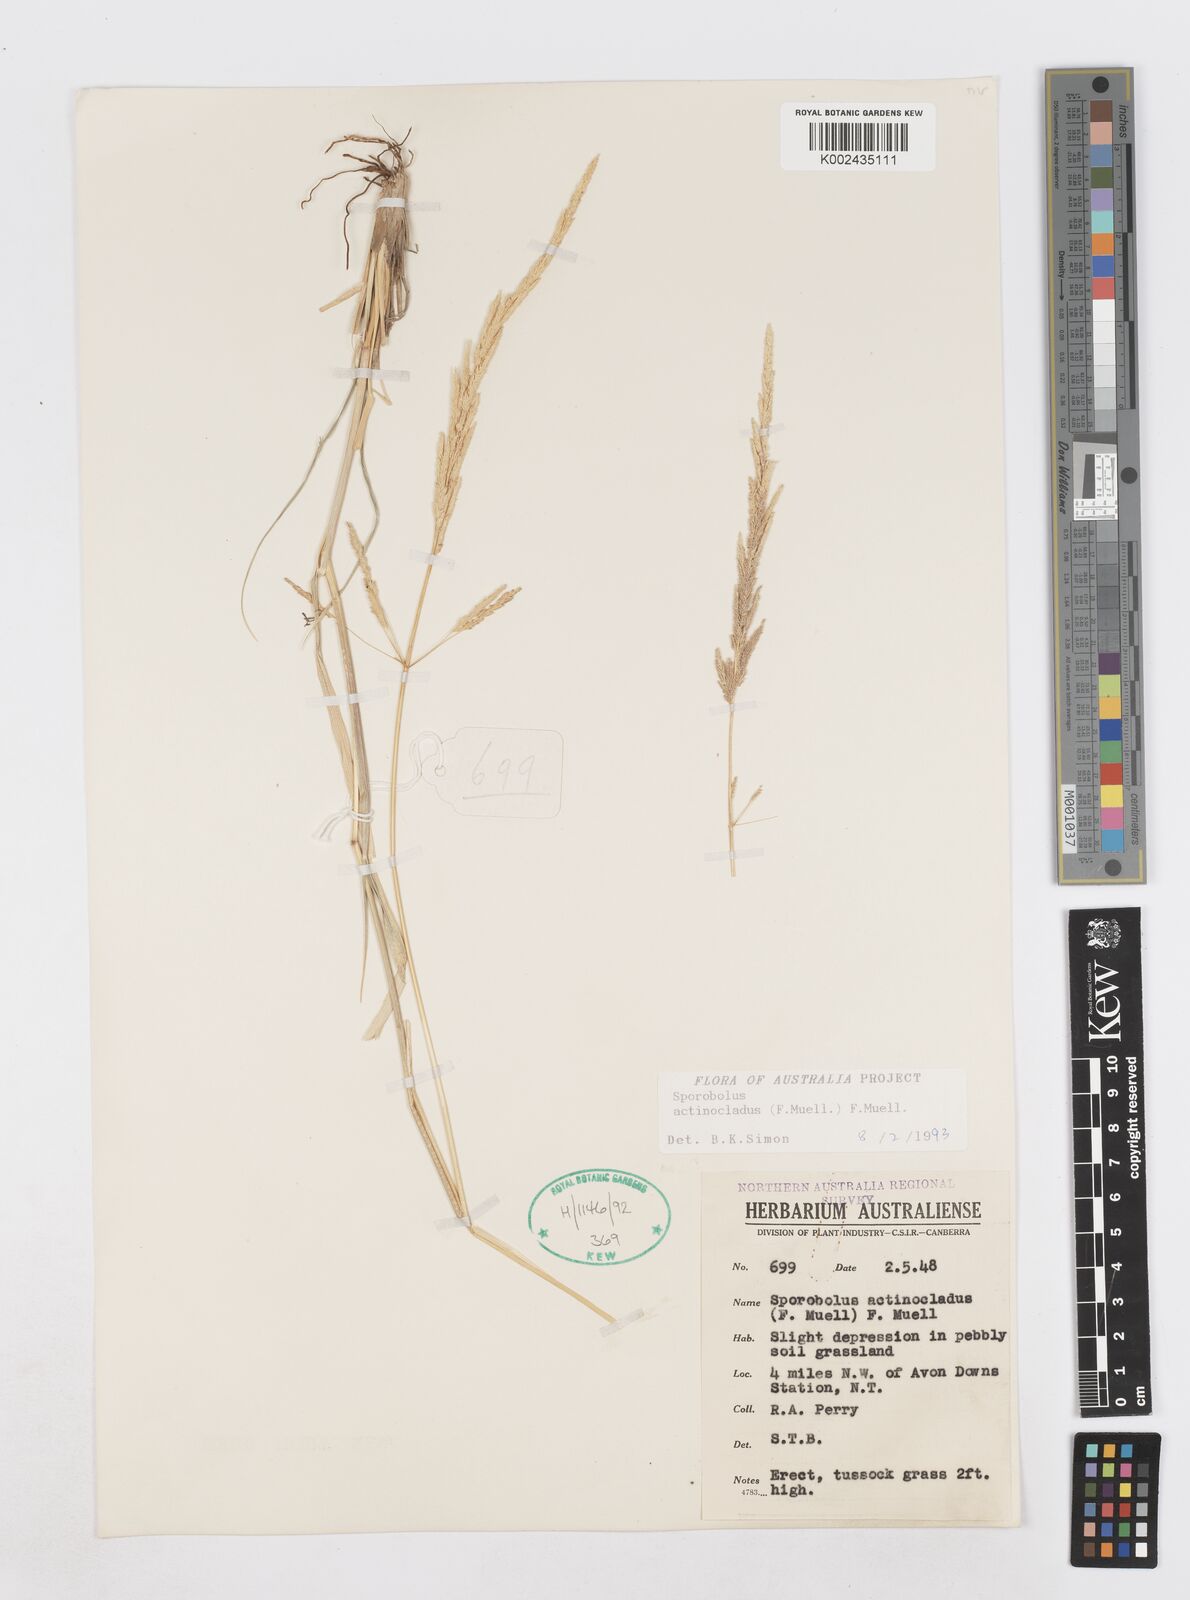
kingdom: Plantae
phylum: Tracheophyta
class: Liliopsida
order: Poales
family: Poaceae
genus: Sporobolus
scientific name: Sporobolus actinocladus
